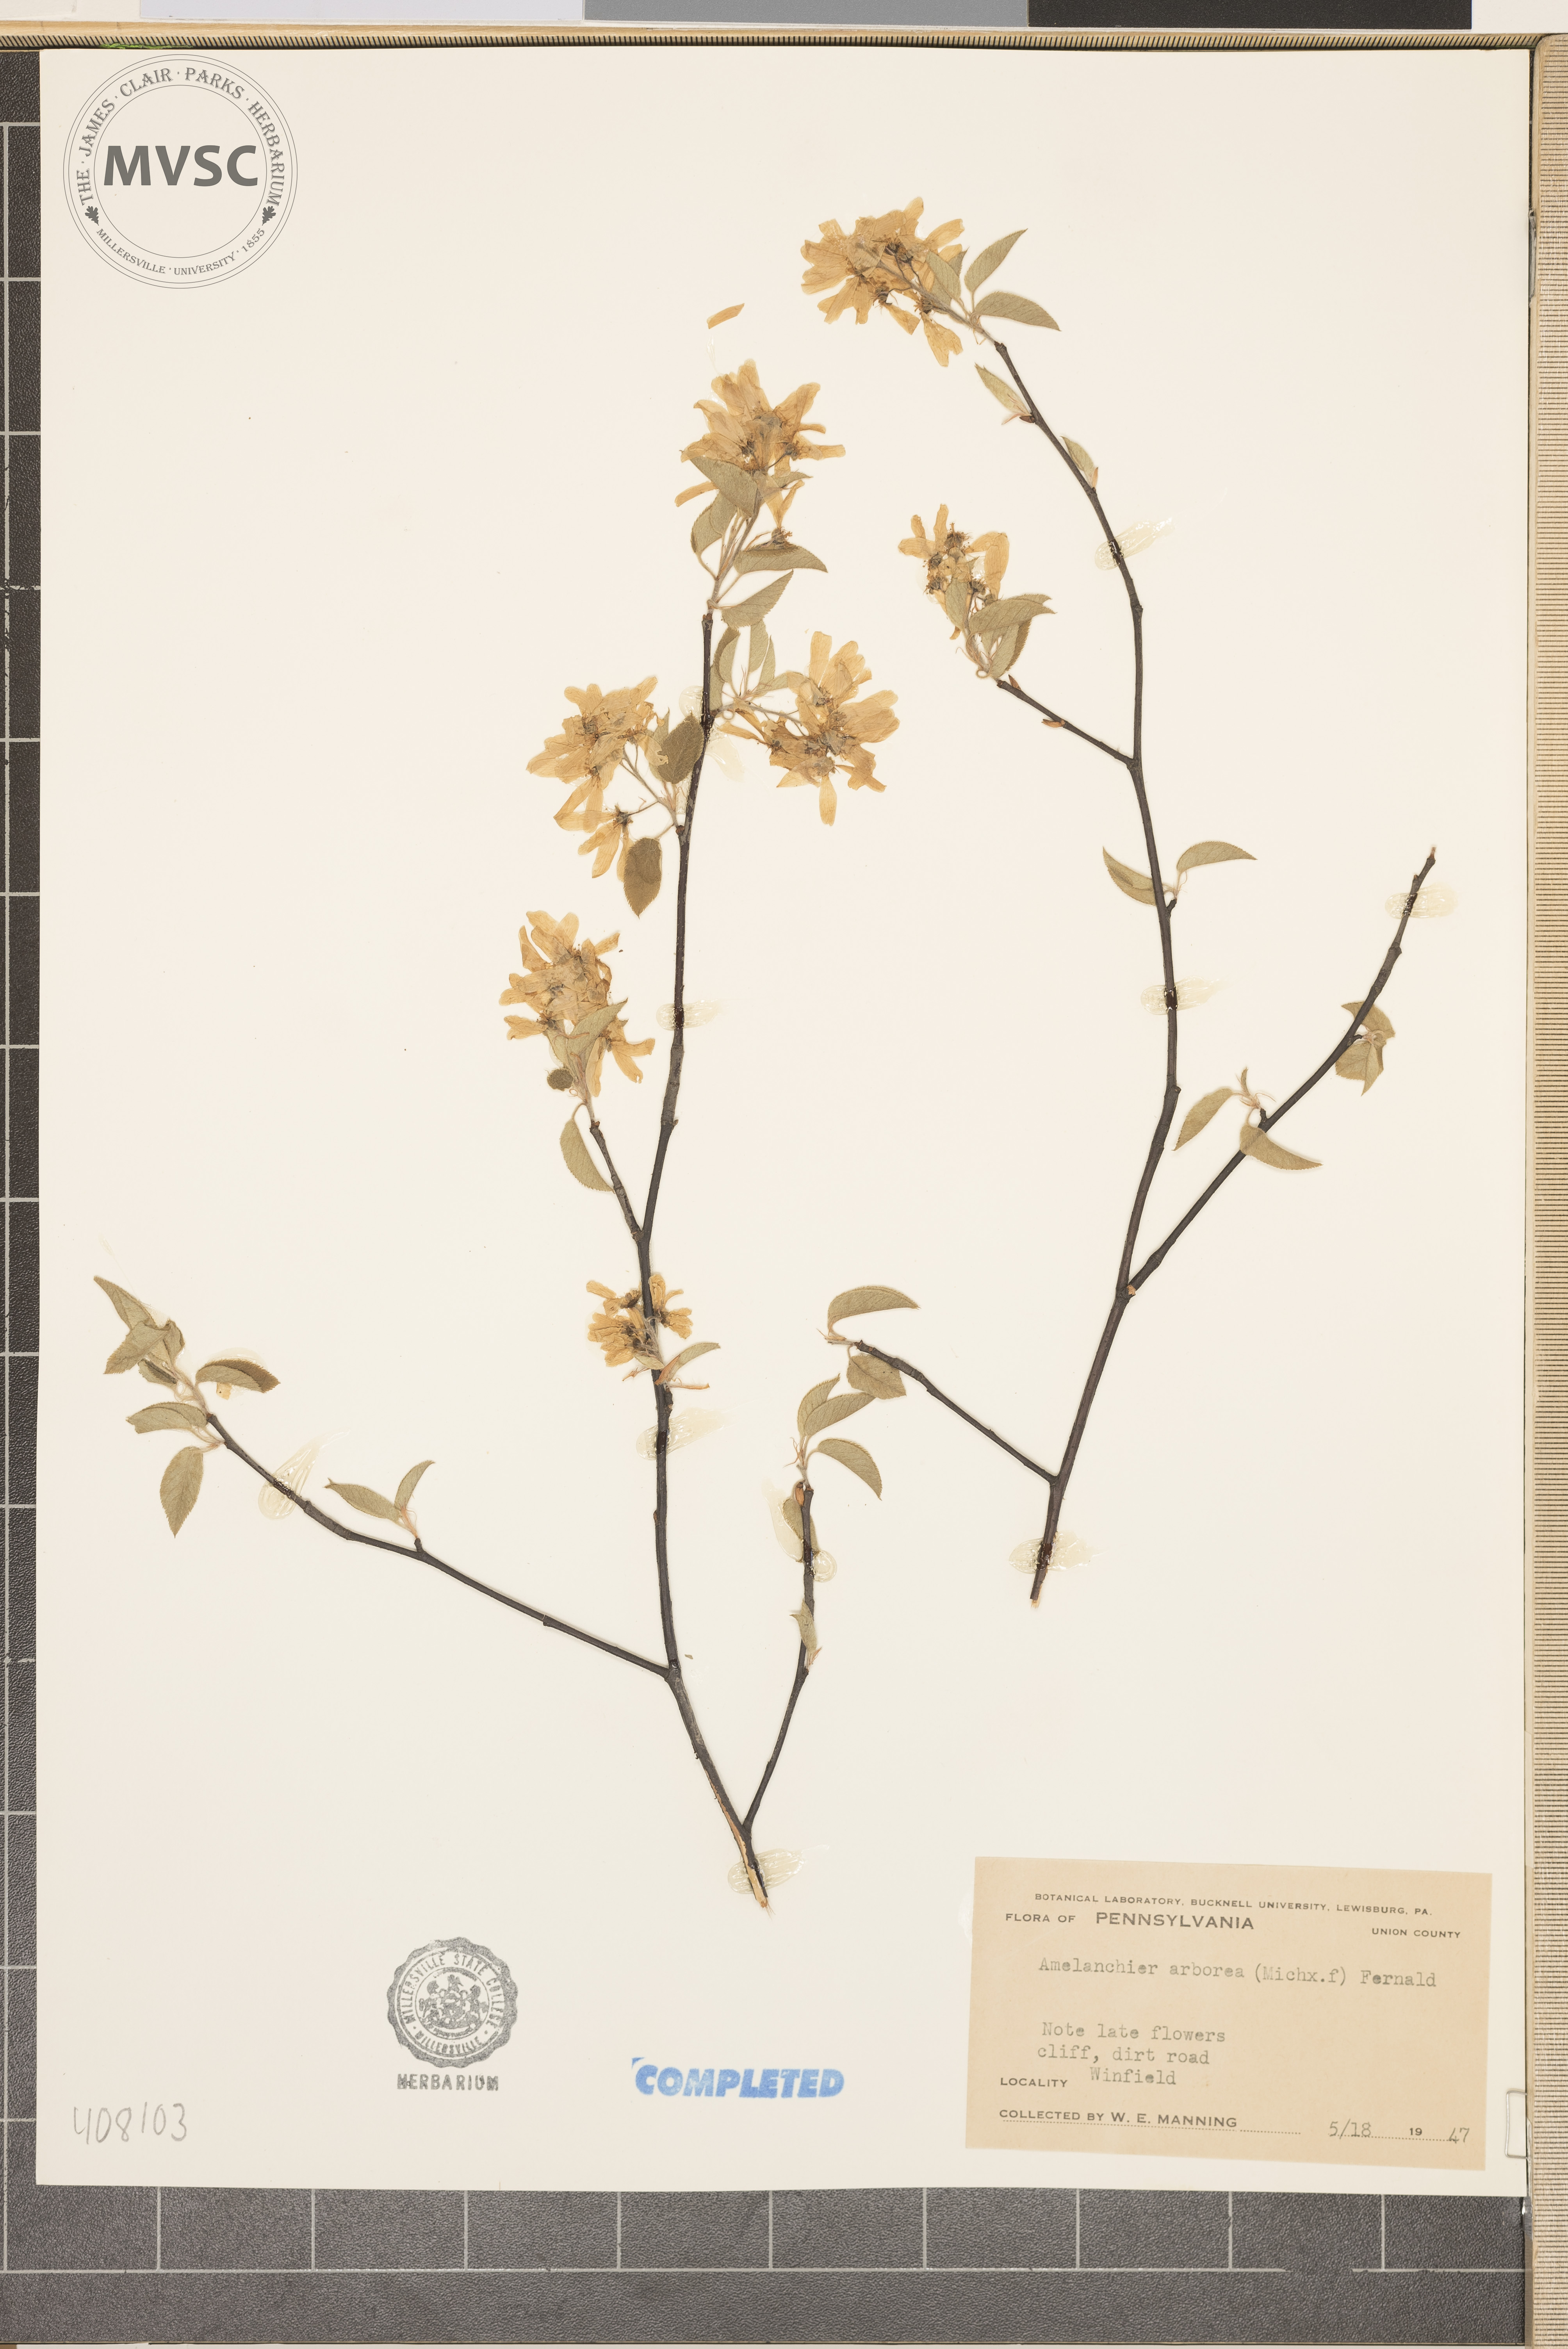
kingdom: Plantae
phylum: Tracheophyta
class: Magnoliopsida
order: Rosales
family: Rosaceae
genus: Amelanchier
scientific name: Amelanchier arborea
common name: Downy serviceberry
